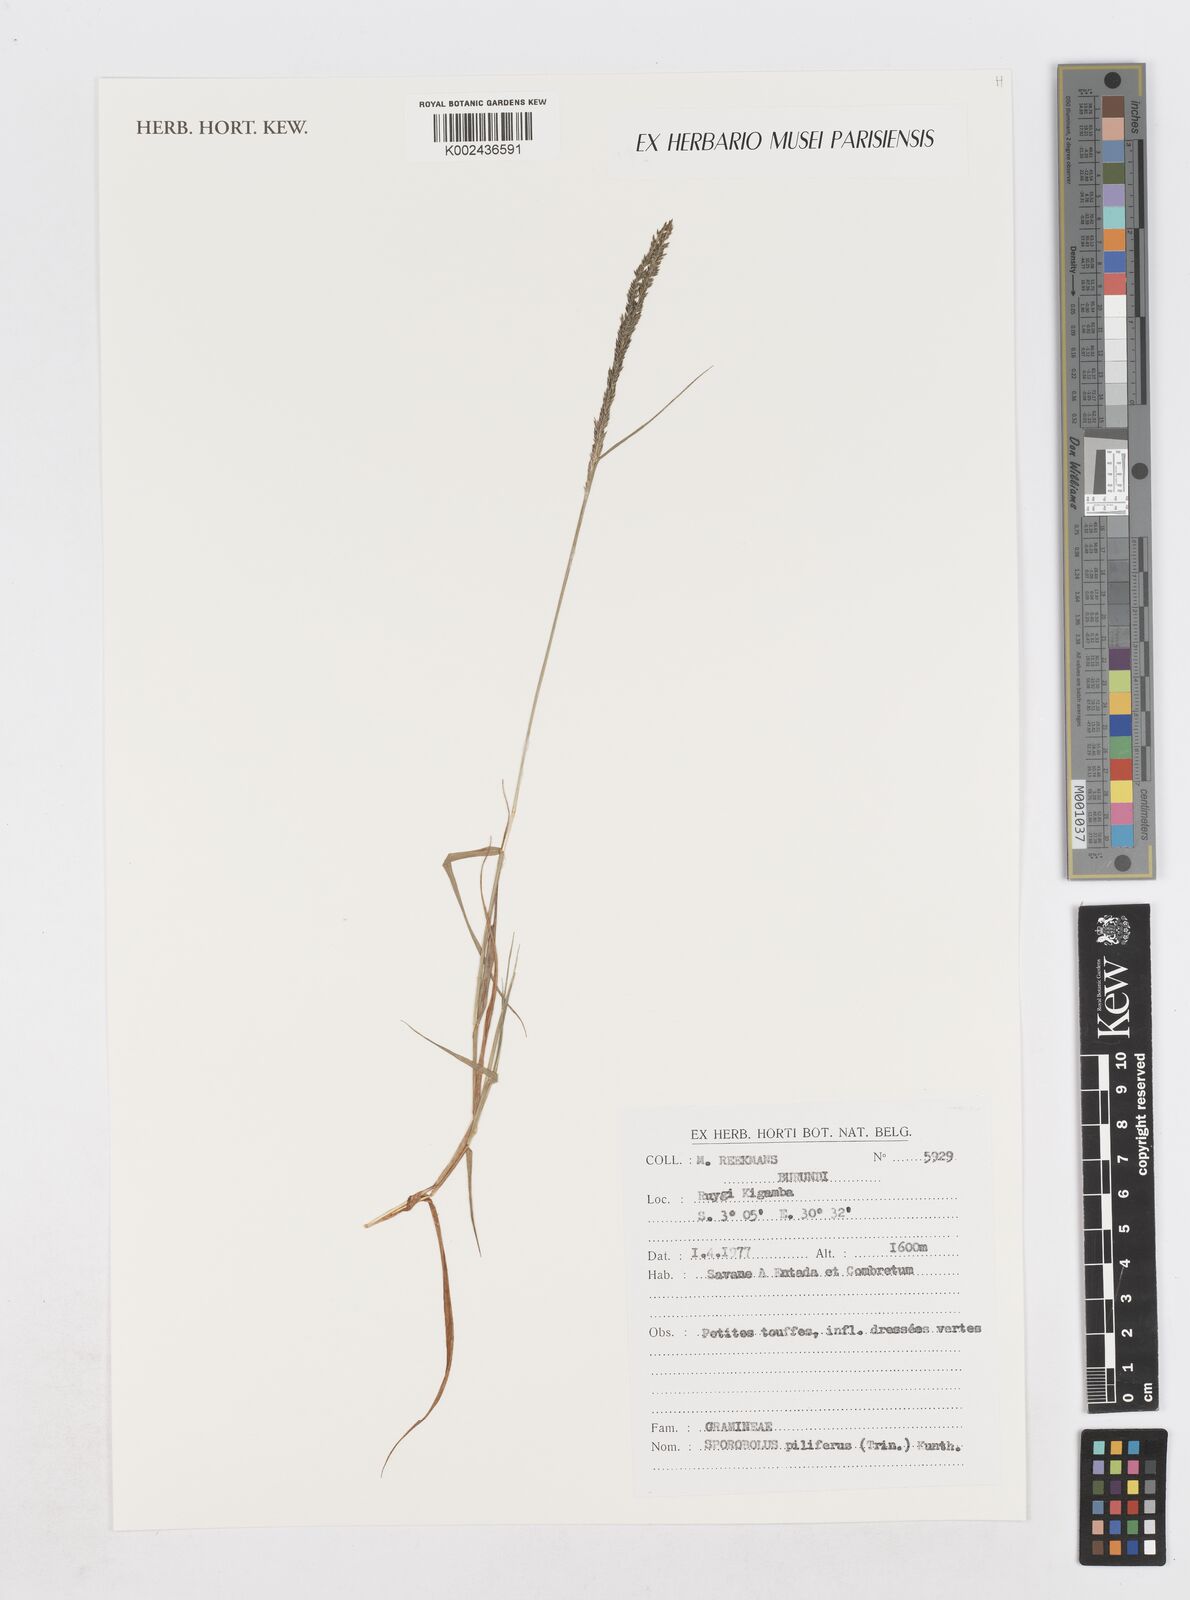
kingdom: Plantae
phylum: Tracheophyta
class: Liliopsida
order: Poales
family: Poaceae
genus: Sporobolus
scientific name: Sporobolus pilifer
